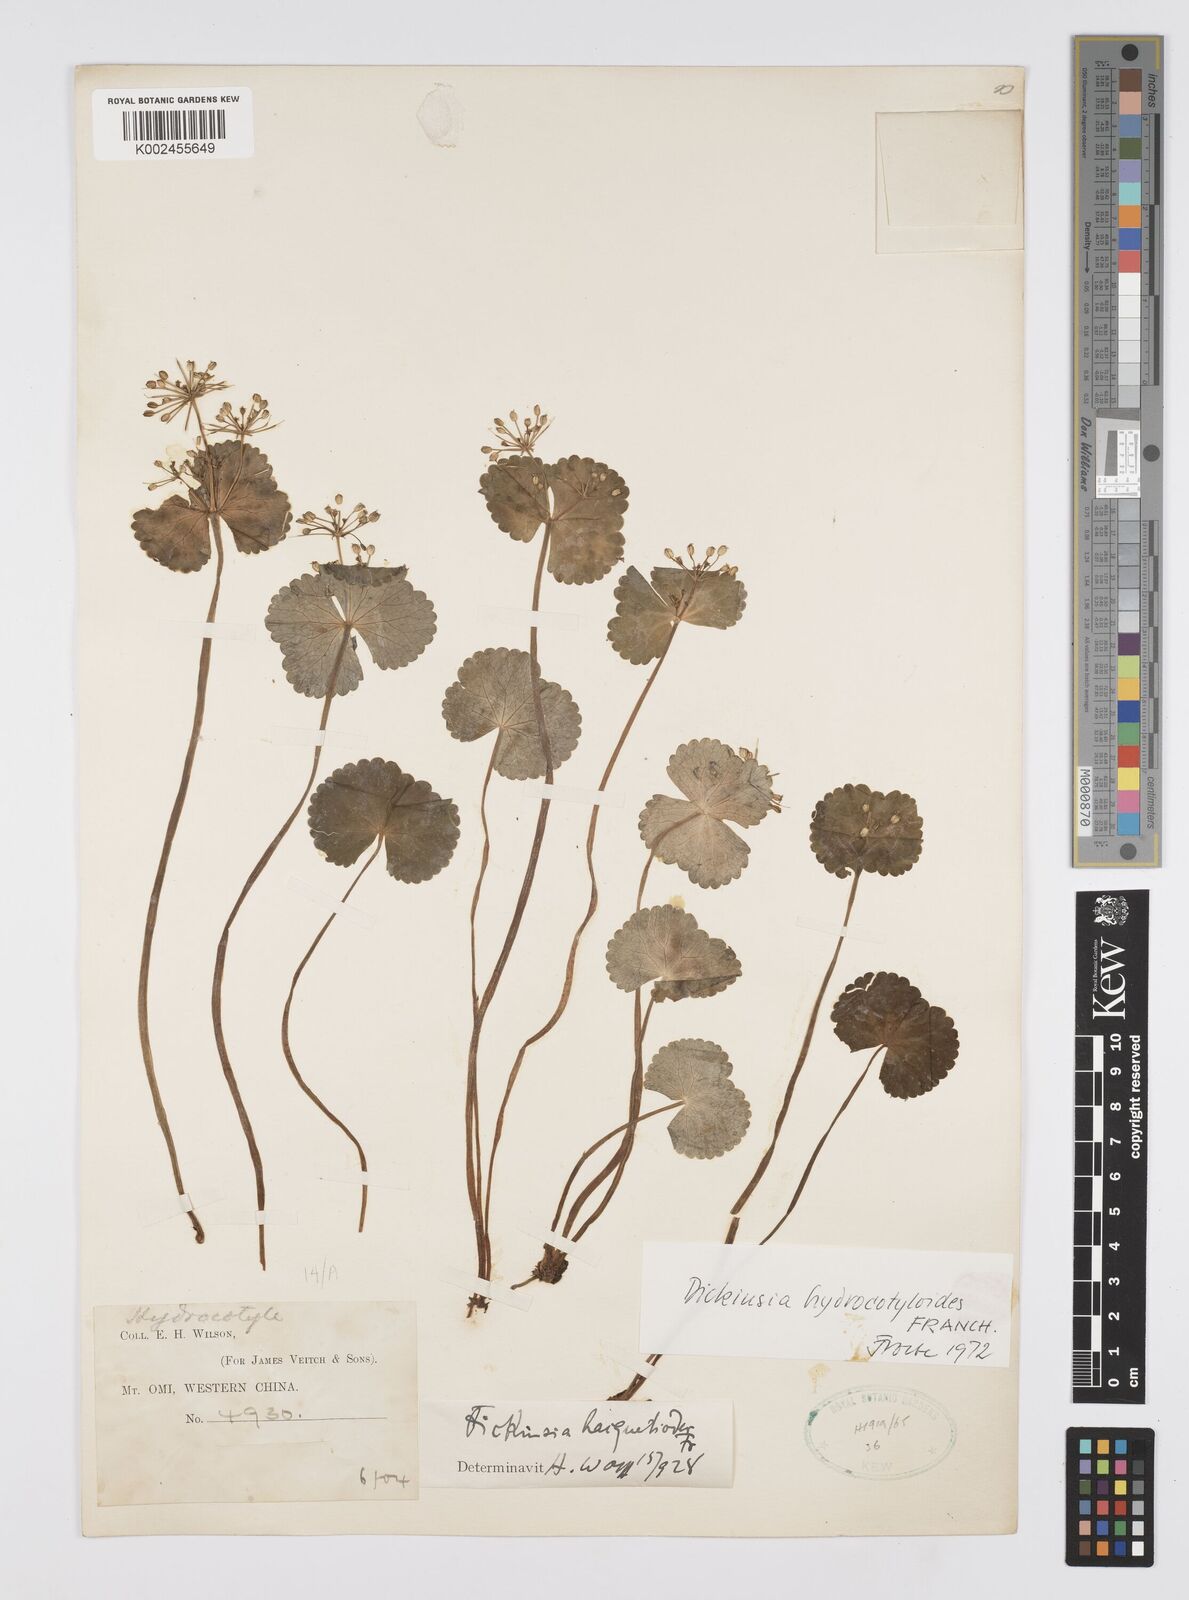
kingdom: Plantae
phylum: Tracheophyta
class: Magnoliopsida
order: Apiales
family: Apiaceae
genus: Dickinsia
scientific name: Dickinsia hydrocotyloides
